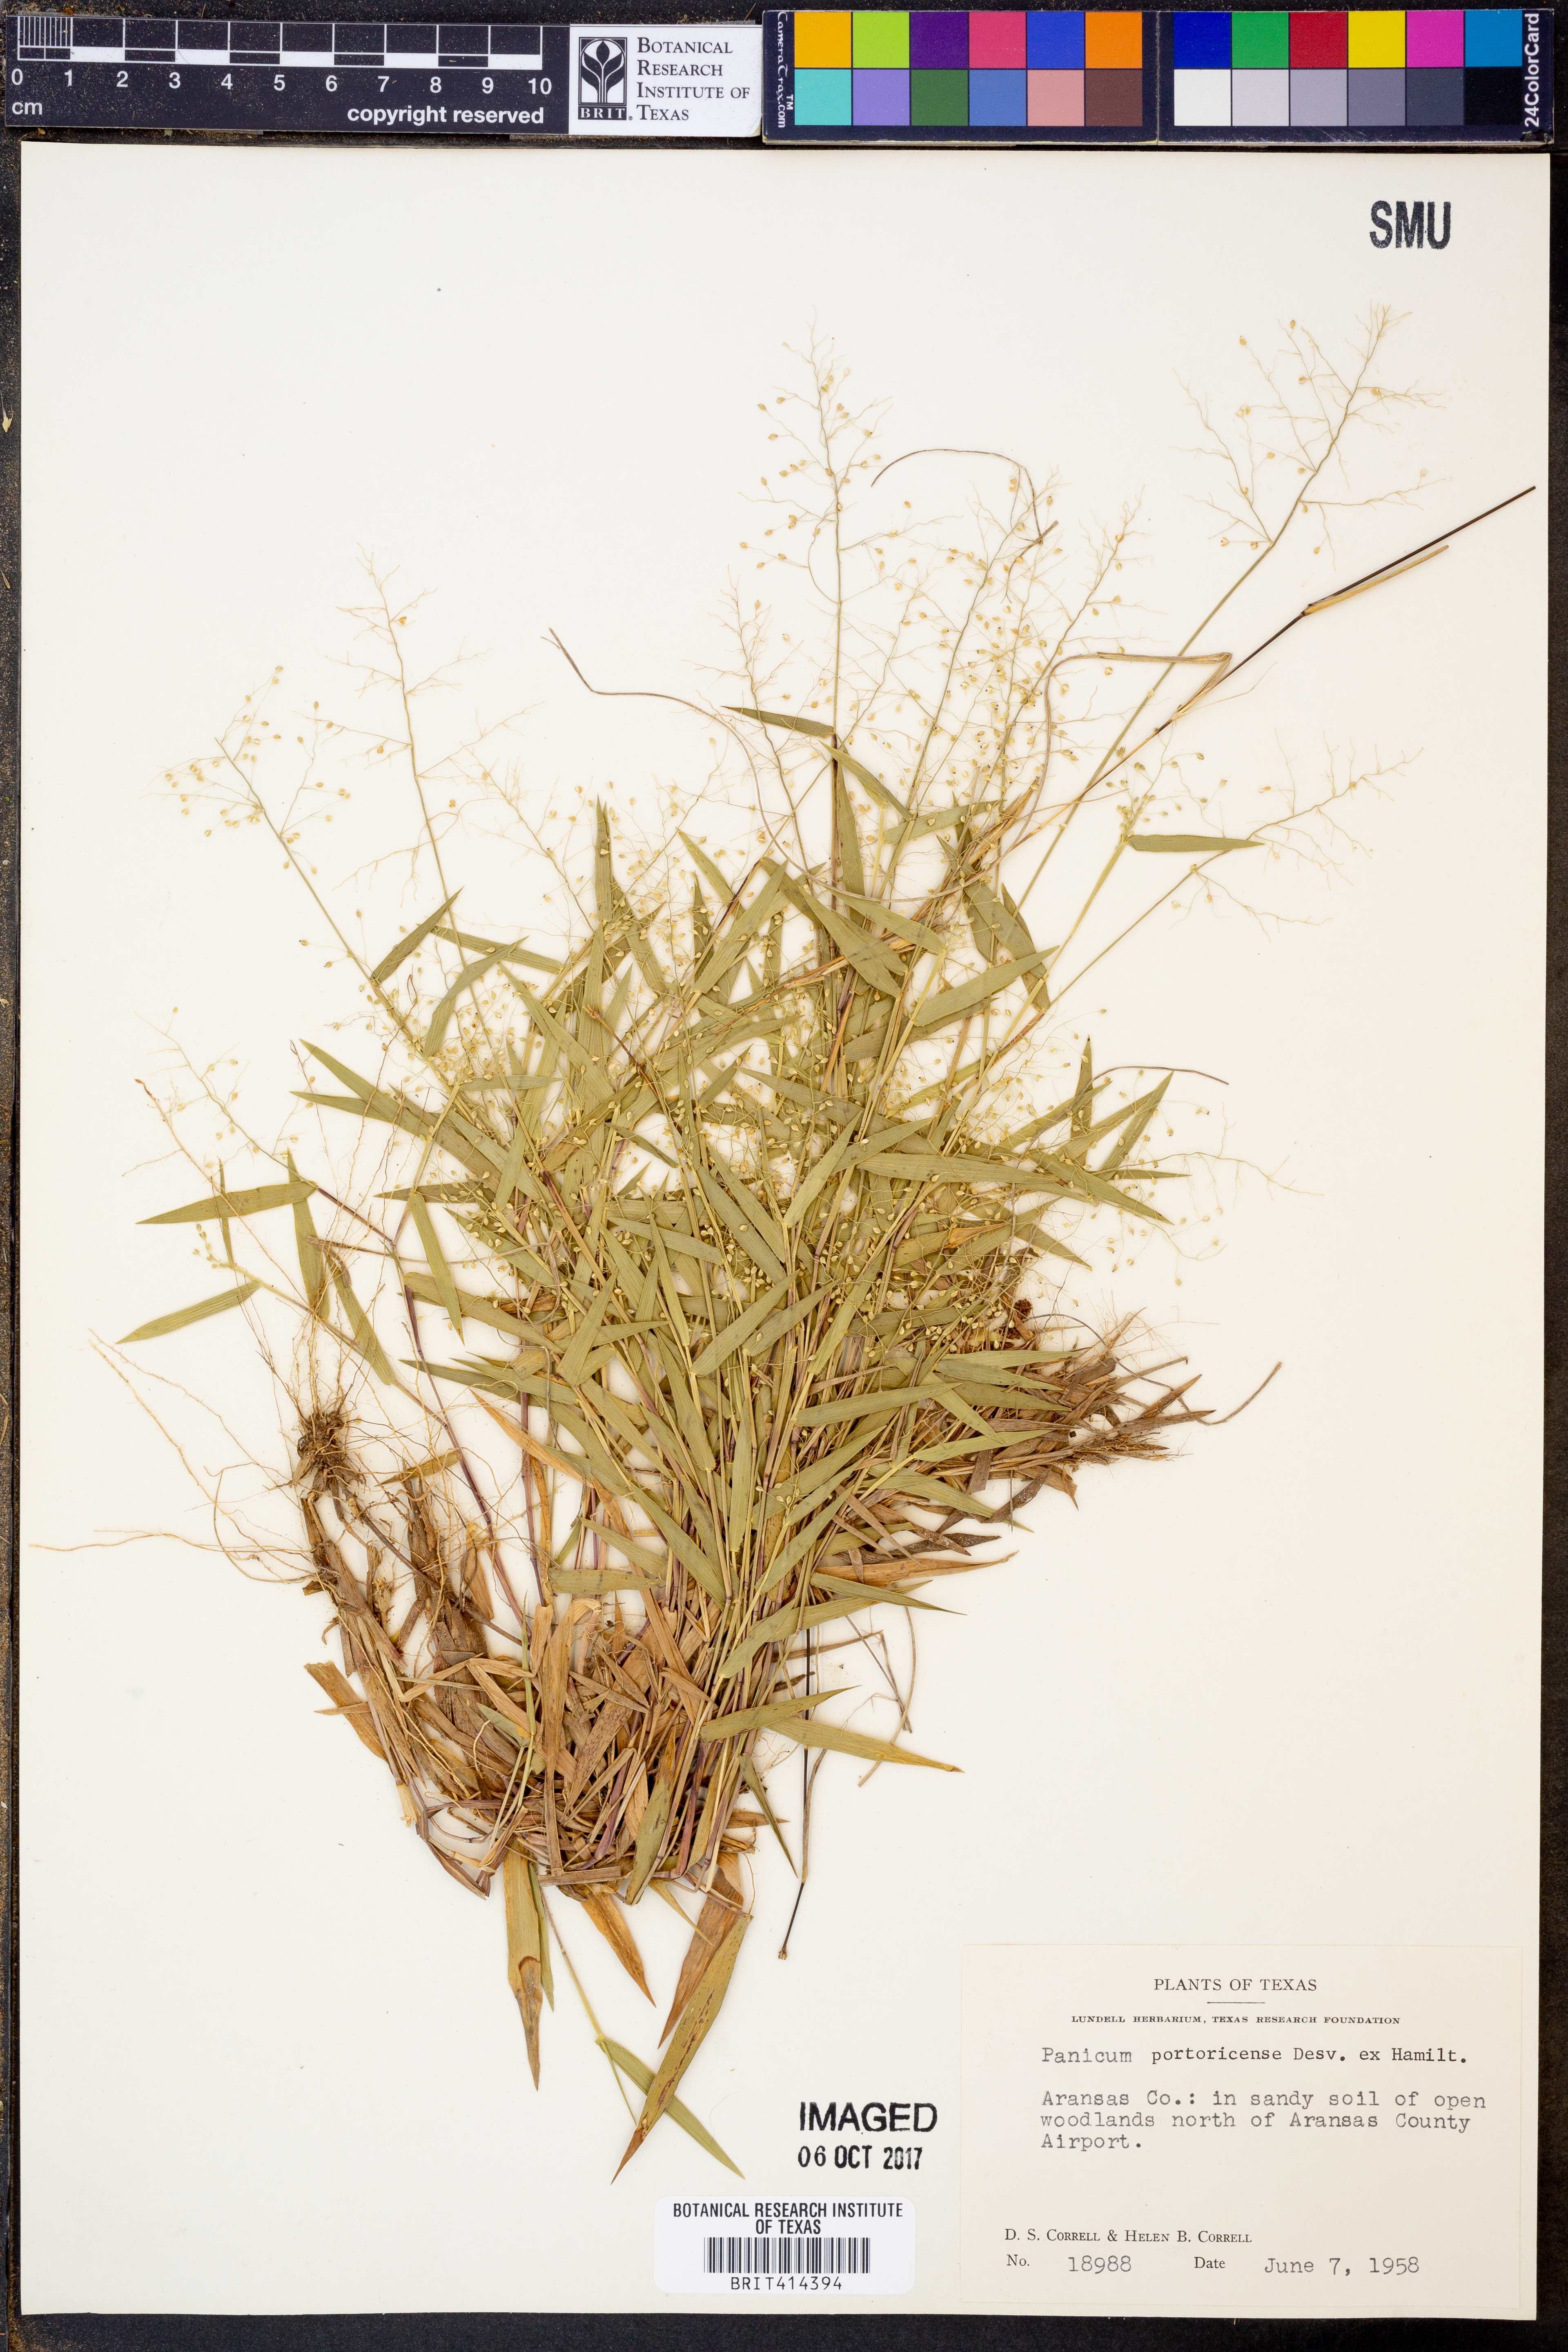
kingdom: Plantae
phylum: Tracheophyta
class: Liliopsida
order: Poales
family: Poaceae
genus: Dichanthelium
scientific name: Dichanthelium portoricense
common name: American panicgrass
